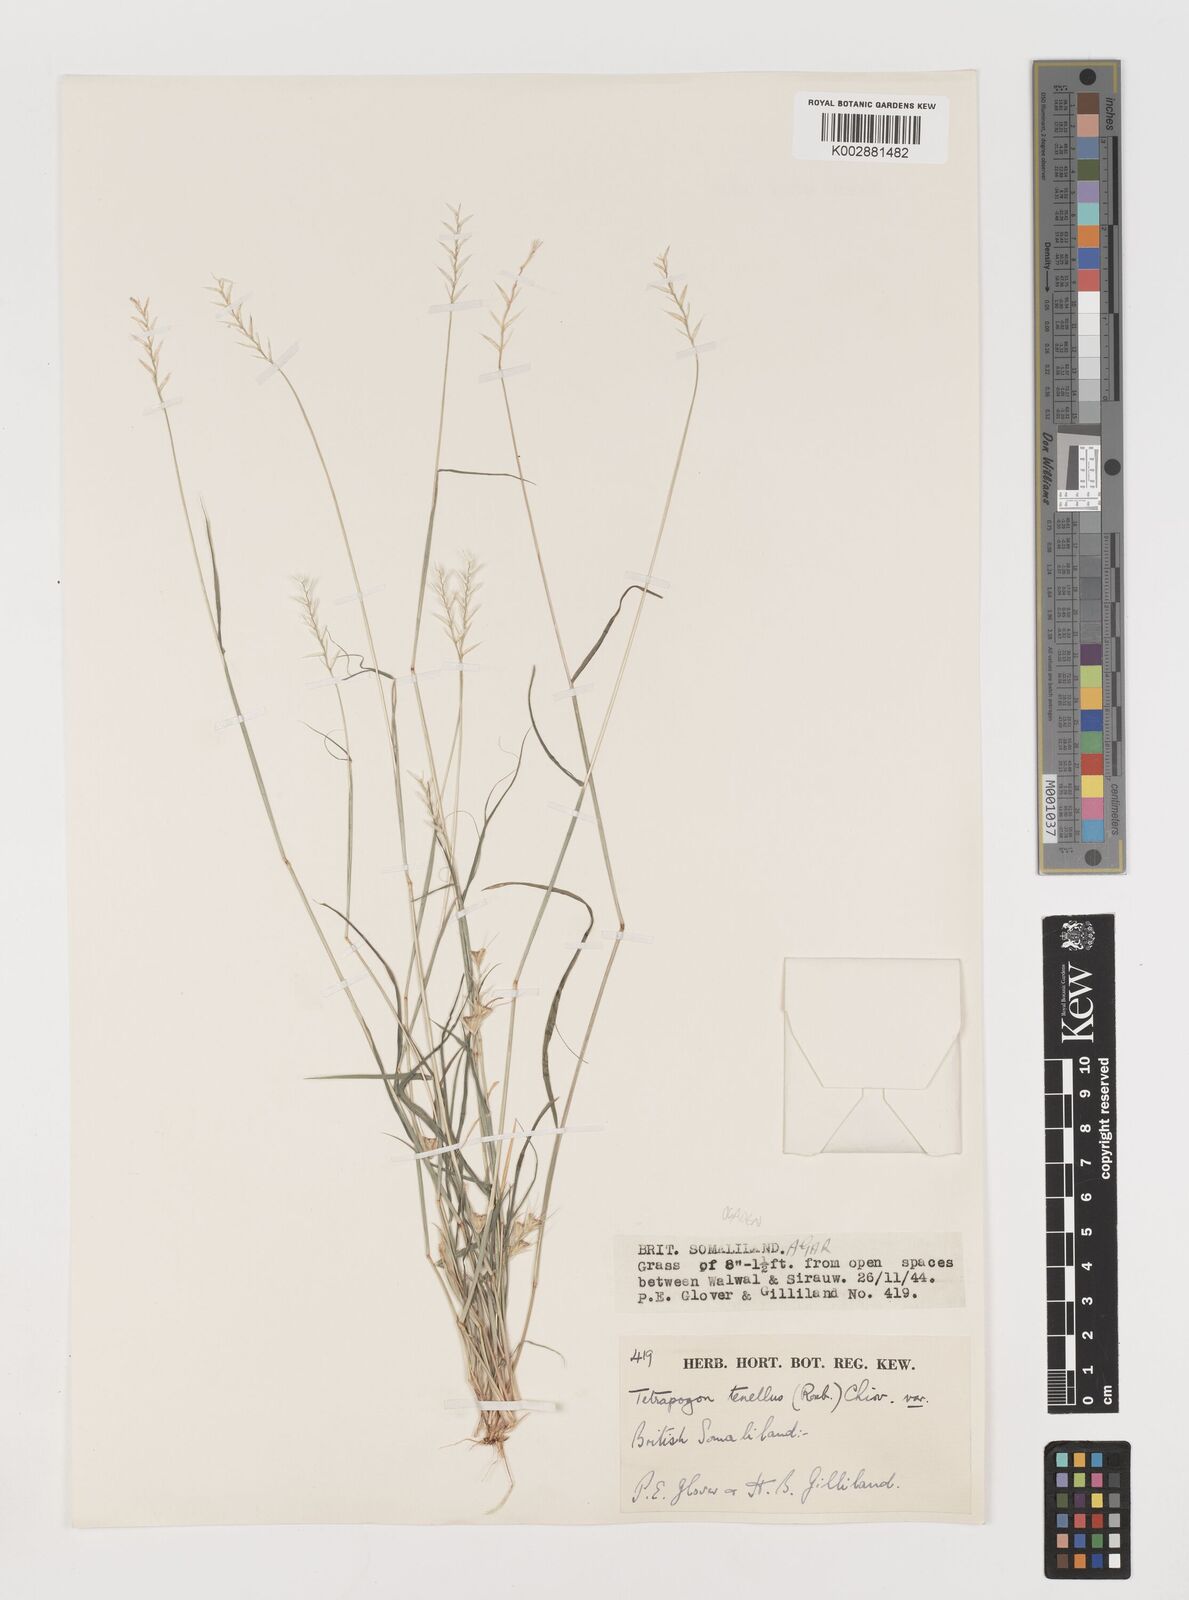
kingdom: Plantae
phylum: Tracheophyta
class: Liliopsida
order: Poales
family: Poaceae
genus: Tetrapogon
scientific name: Tetrapogon tenellus
